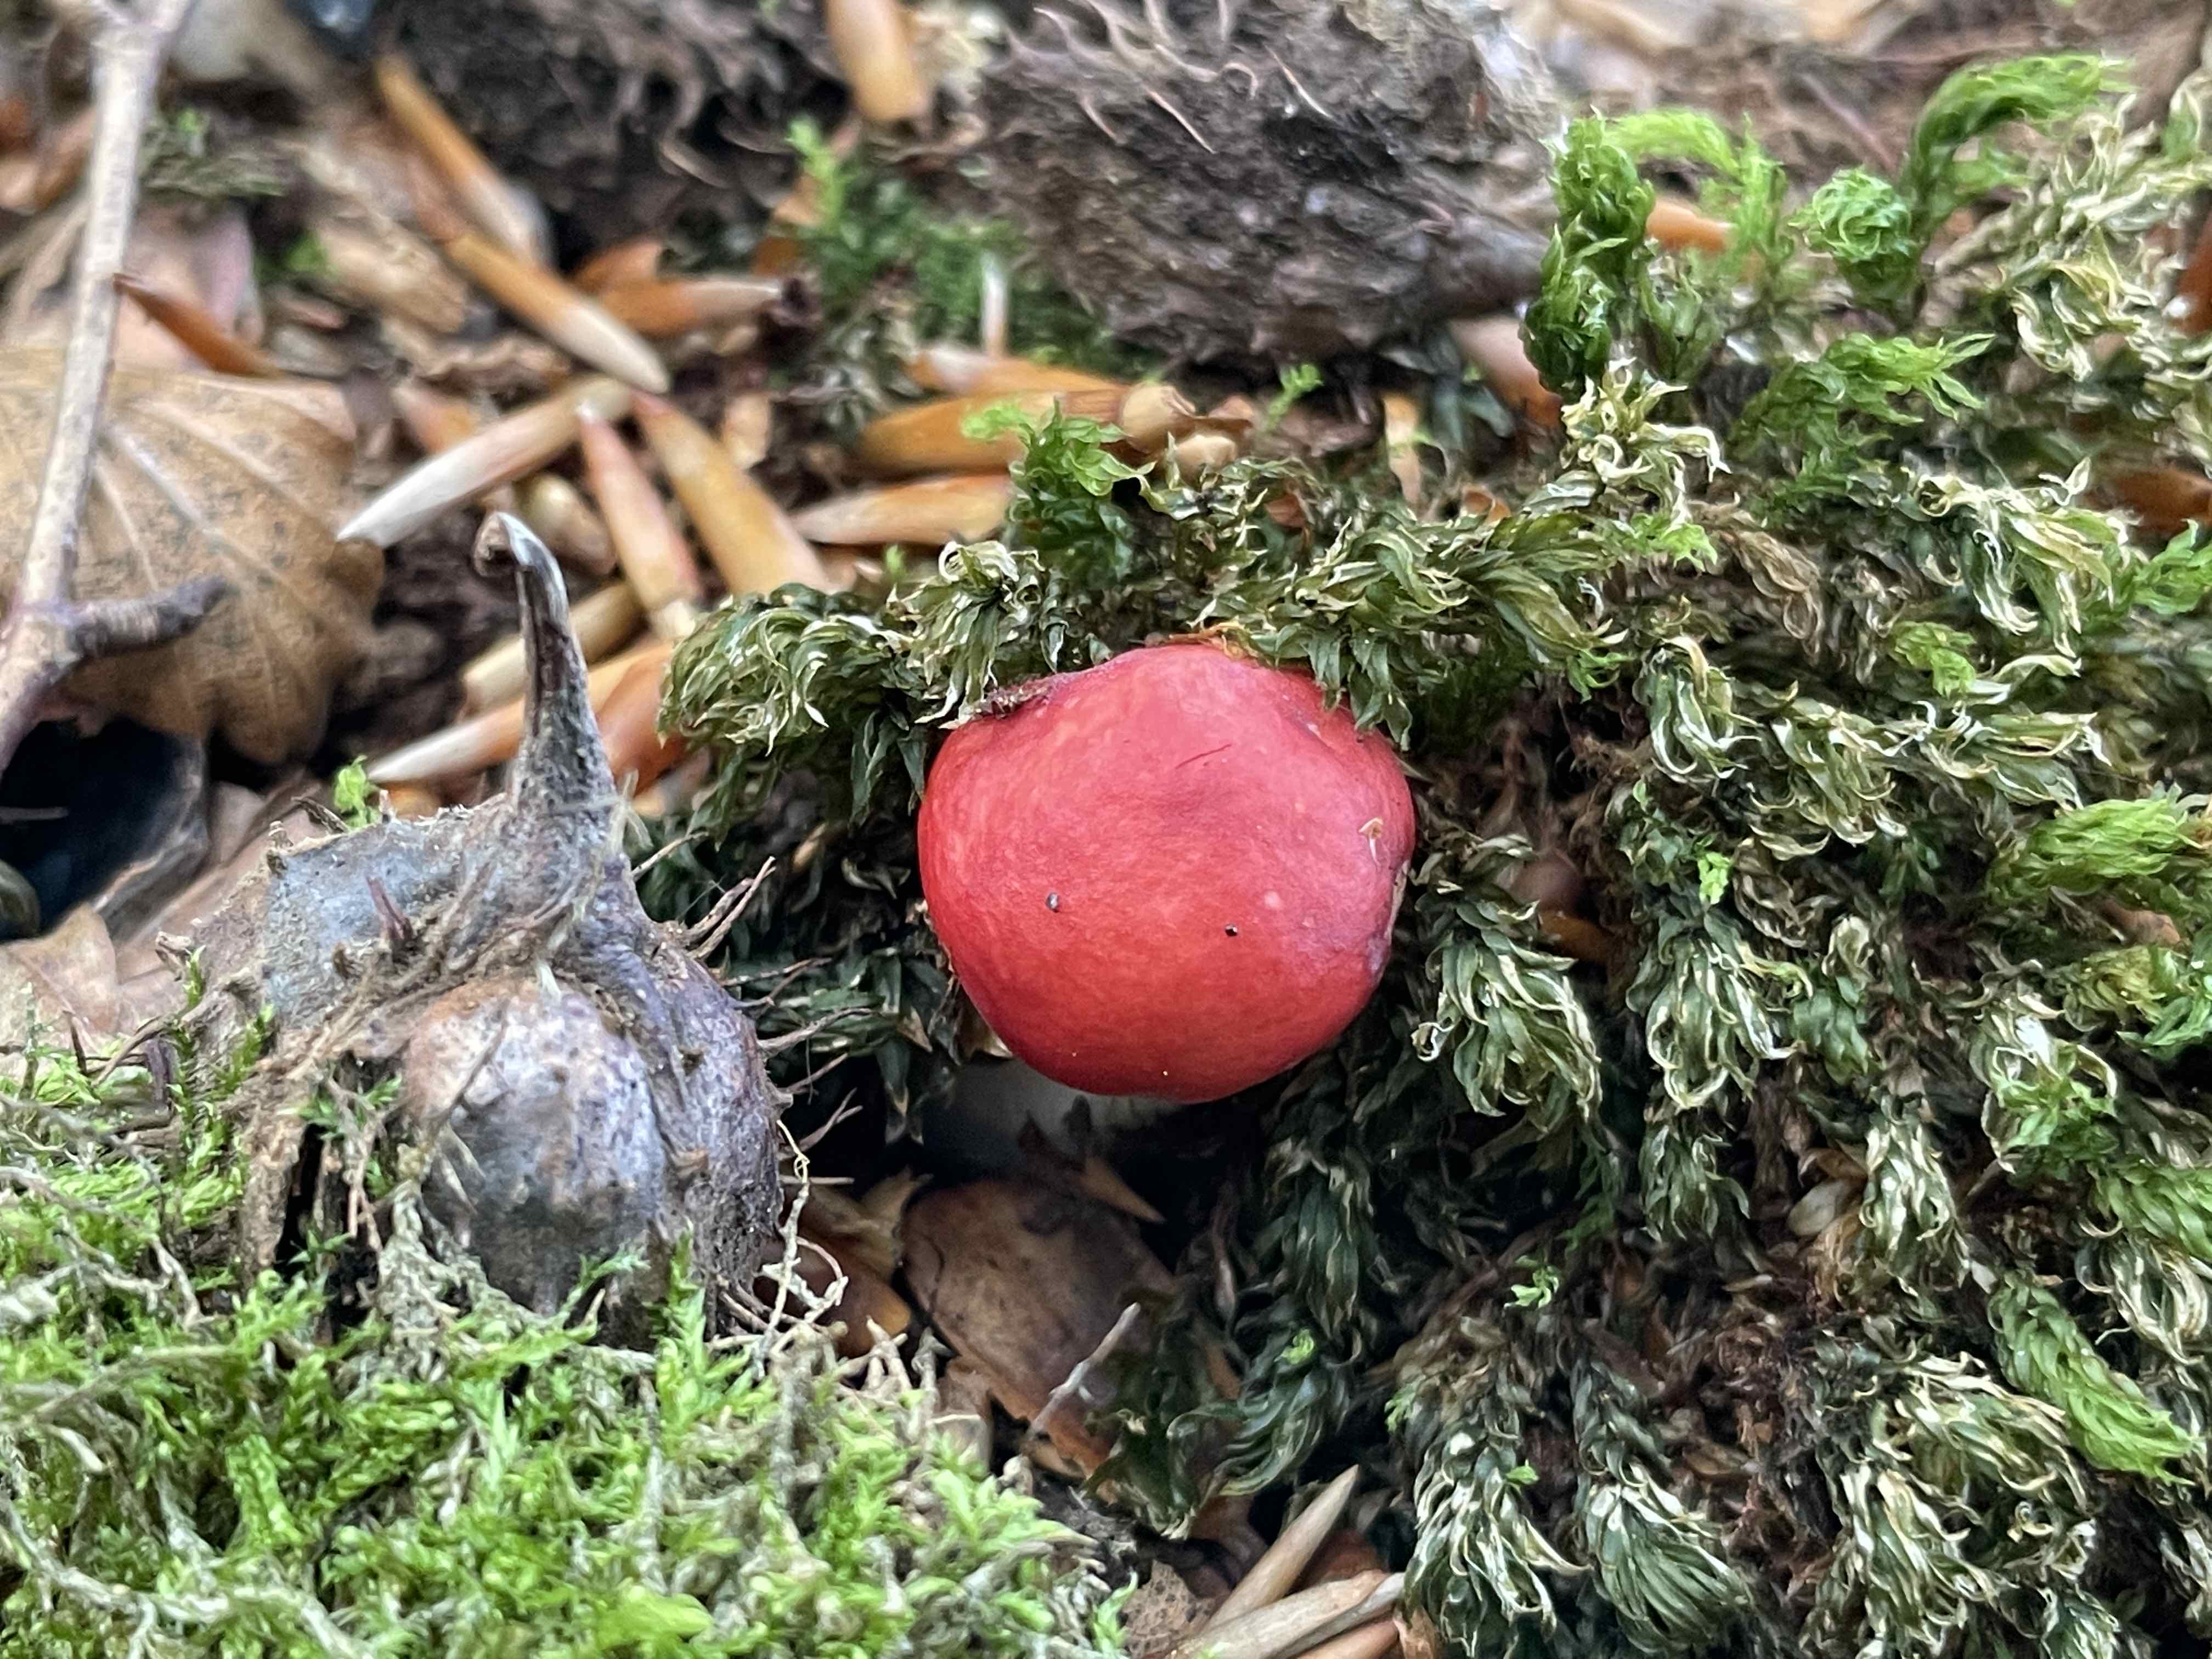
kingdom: Fungi
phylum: Basidiomycota
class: Agaricomycetes
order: Russulales
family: Russulaceae
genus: Russula
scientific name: Russula nobilis
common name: lille gift-skørhat
